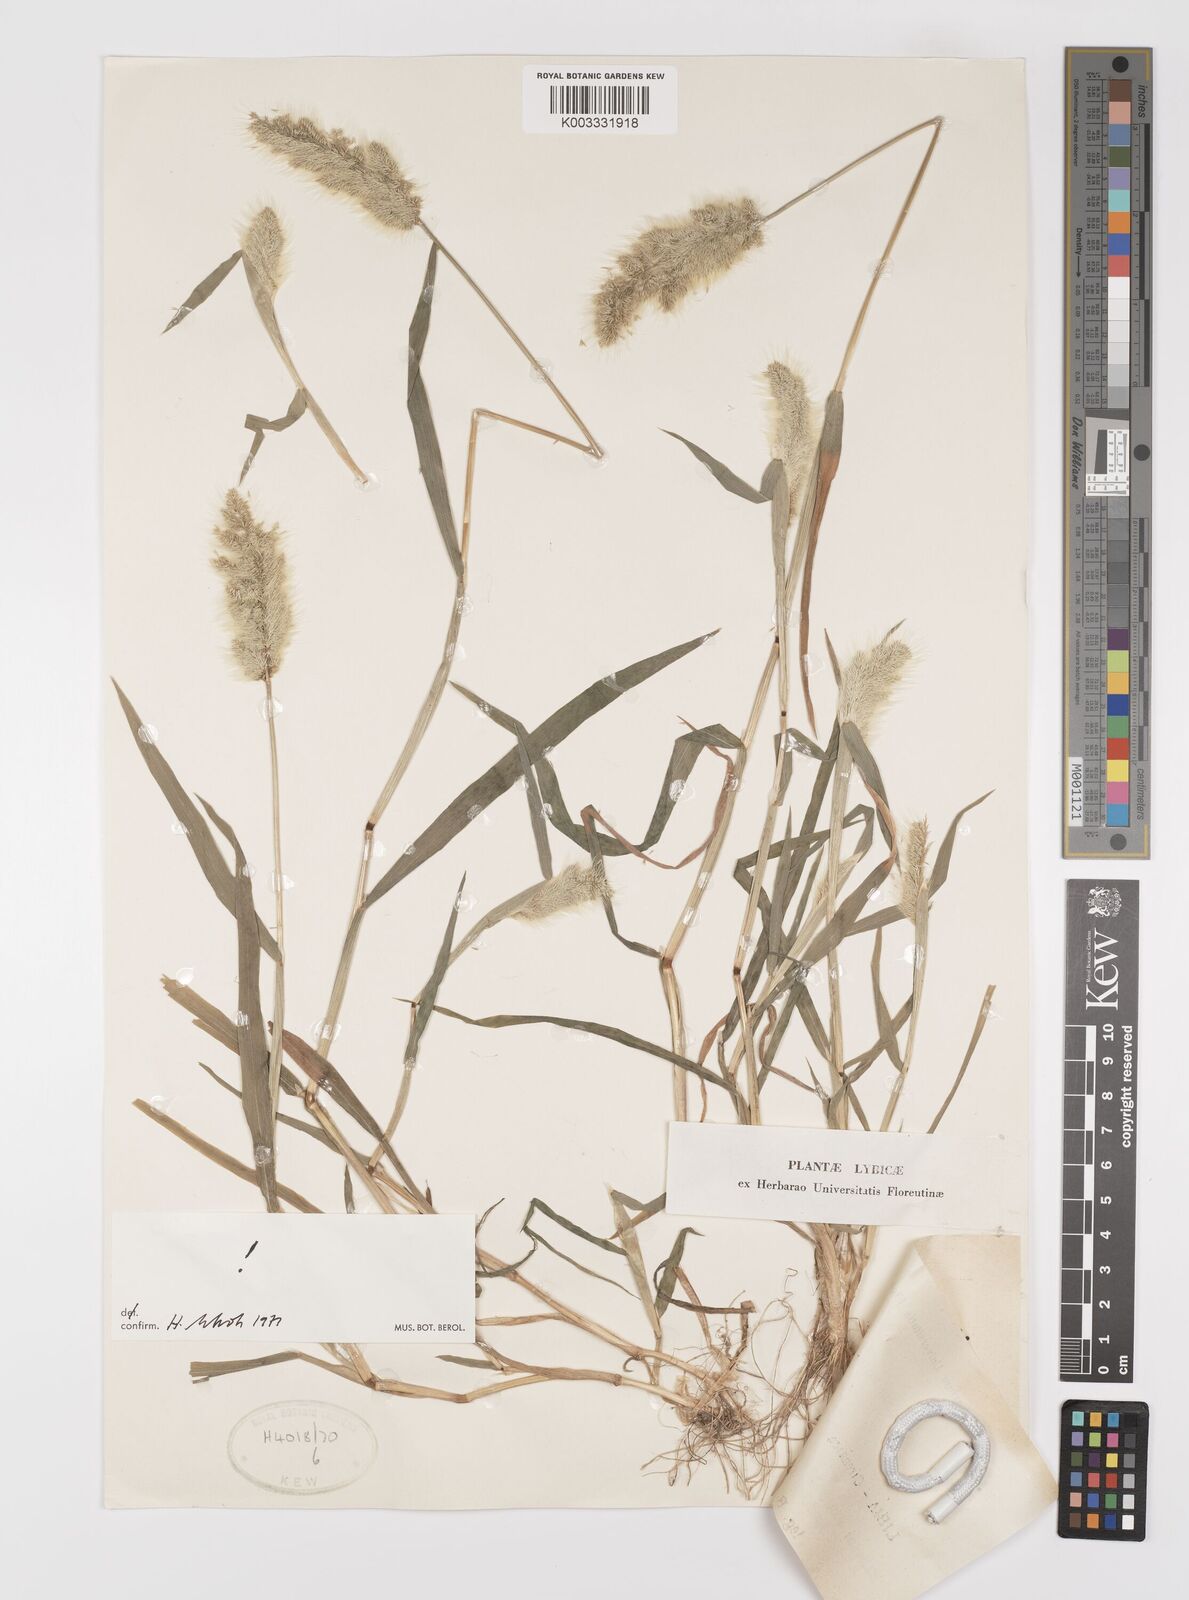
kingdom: Plantae
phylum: Tracheophyta
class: Liliopsida
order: Poales
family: Poaceae
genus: Polypogon
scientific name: Polypogon monspeliensis
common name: Annual rabbitsfoot grass
